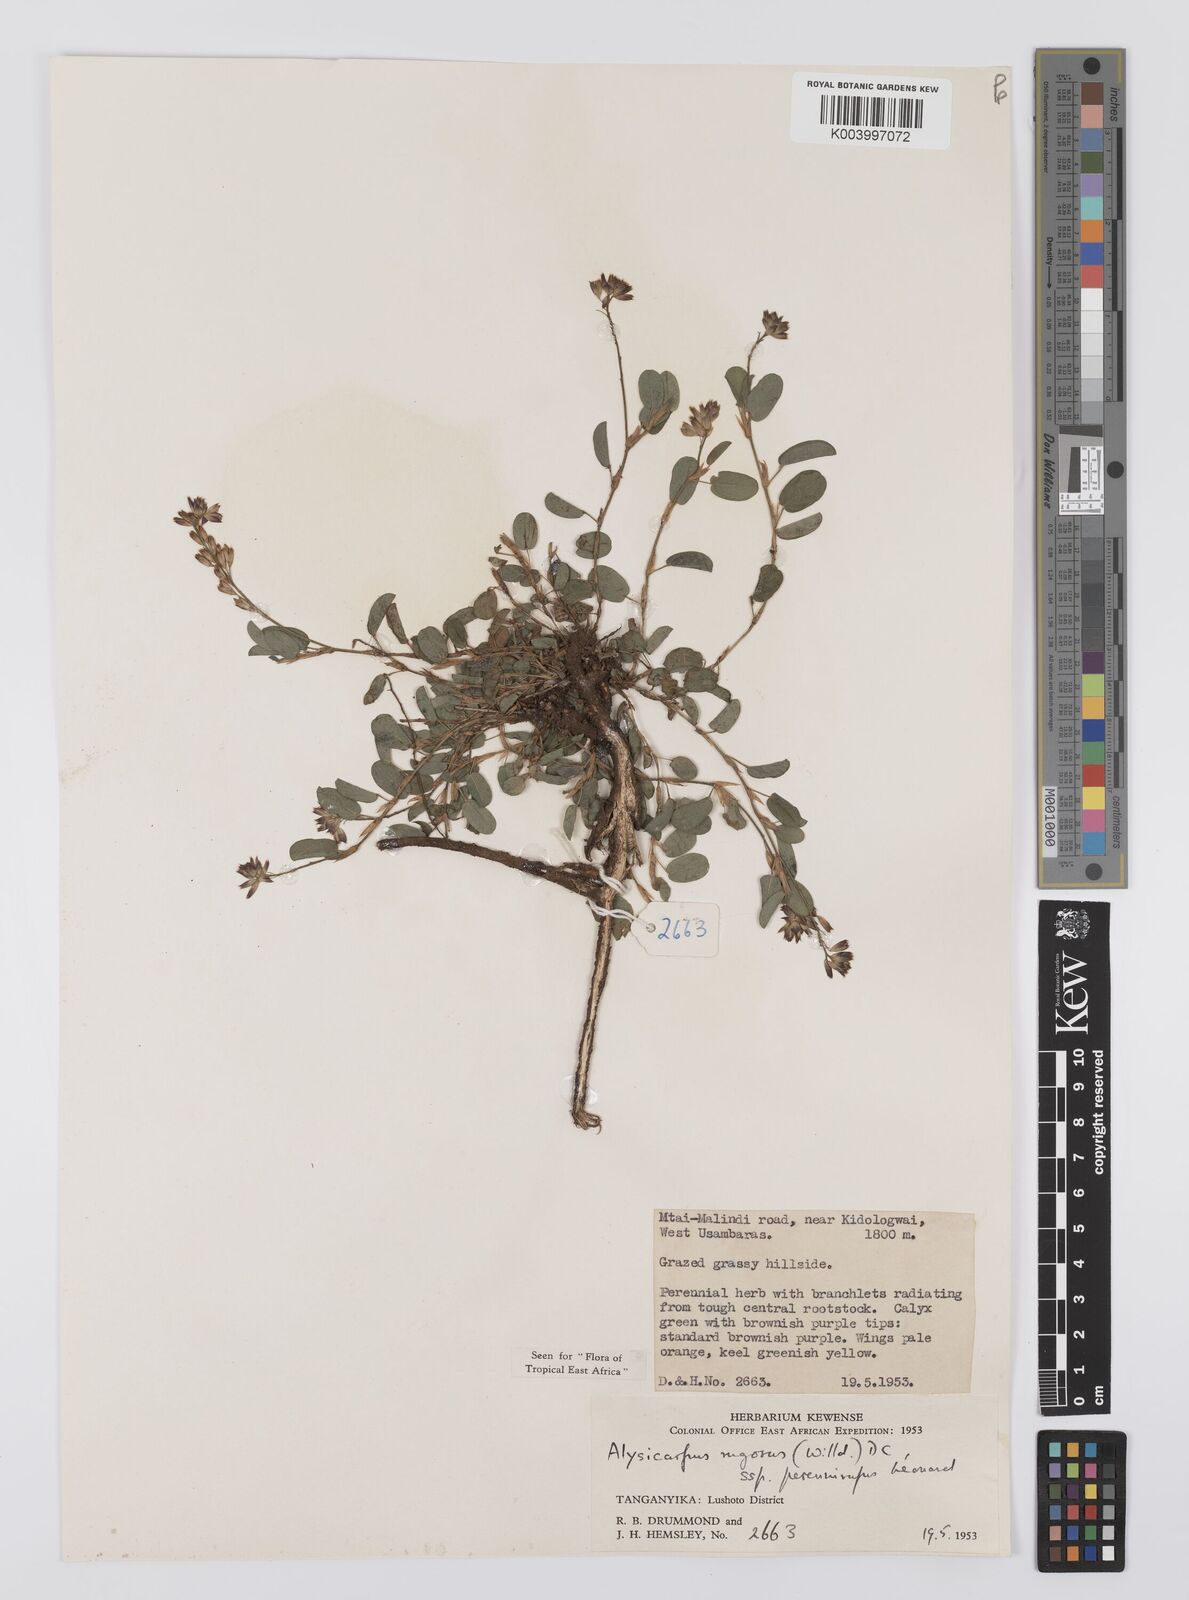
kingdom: Plantae
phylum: Tracheophyta
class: Magnoliopsida
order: Fabales
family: Fabaceae
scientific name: Fabaceae
